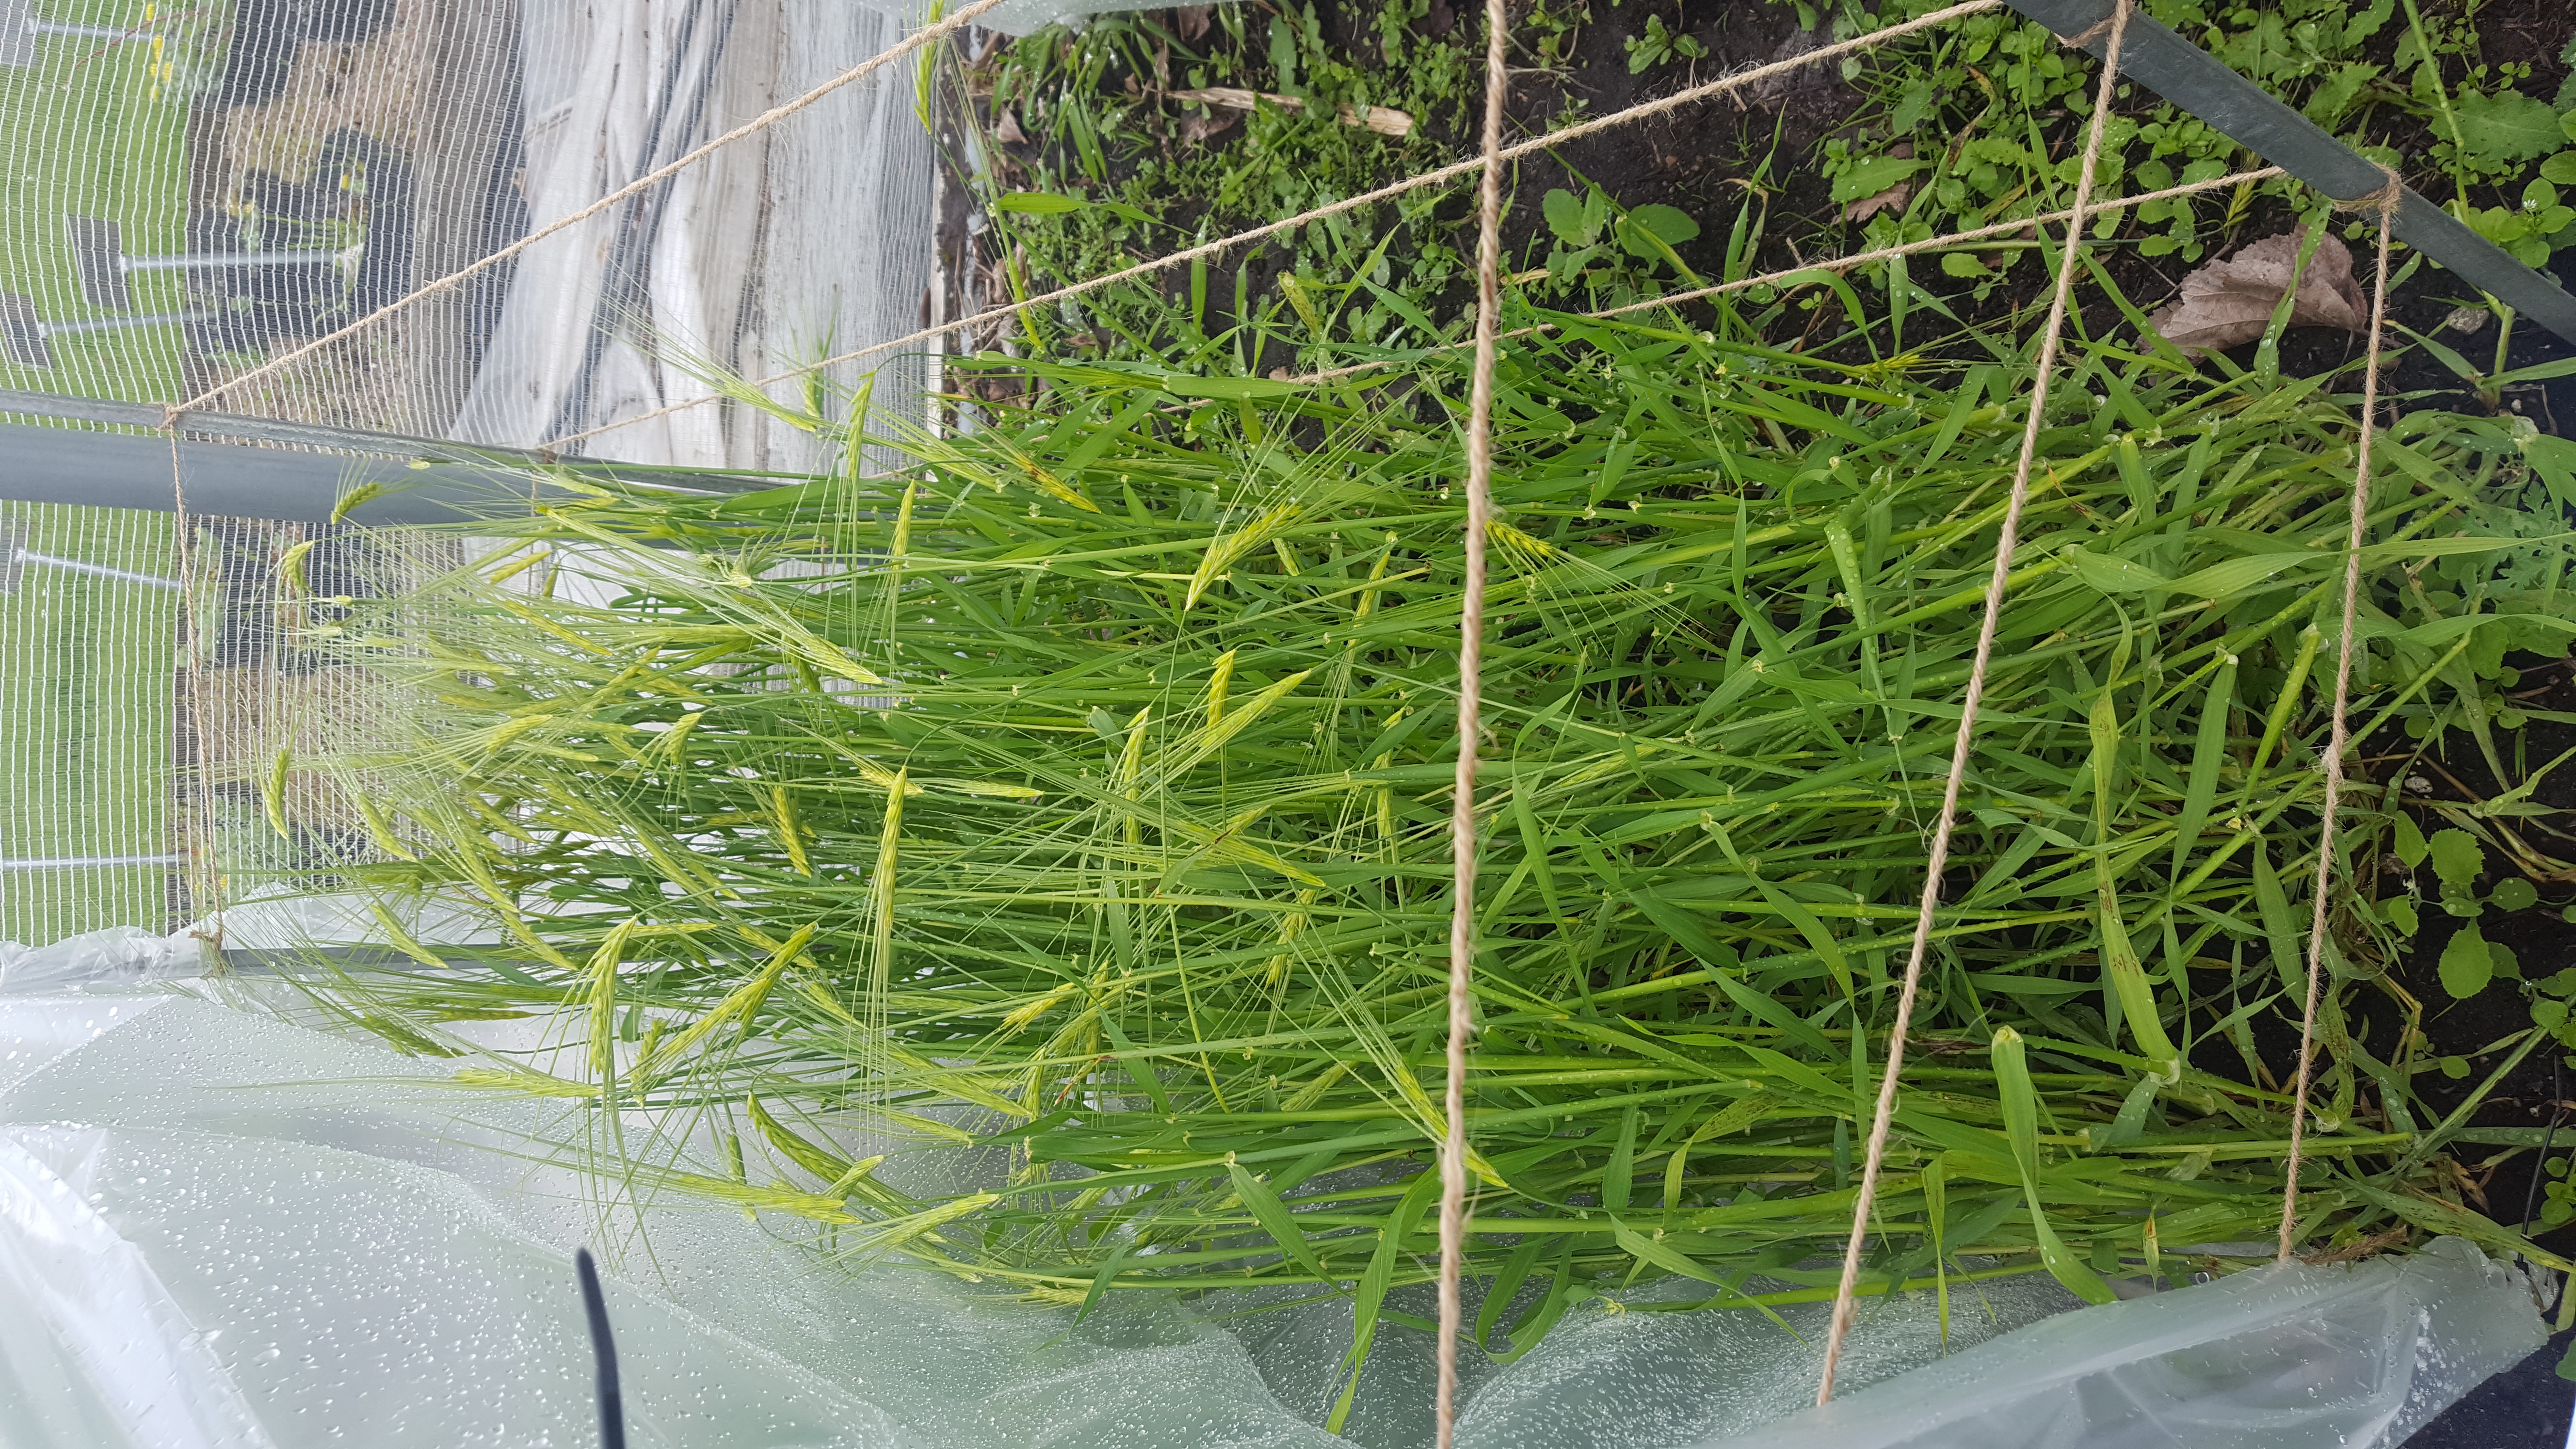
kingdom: Plantae
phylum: Tracheophyta
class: Liliopsida
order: Poales
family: Poaceae
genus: Hordeum
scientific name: Hordeum spontaneum
